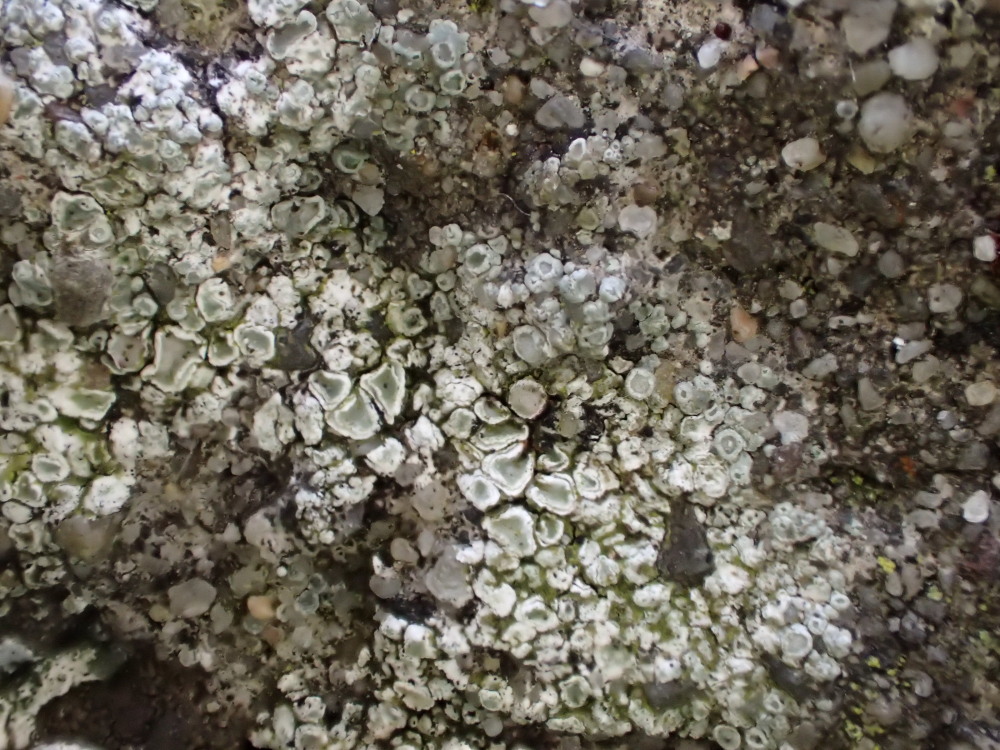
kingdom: Fungi
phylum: Ascomycota
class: Lecanoromycetes
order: Lecanorales
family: Lecanoraceae
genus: Polyozosia
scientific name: Polyozosia albescens
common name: cement-kantskivelav
